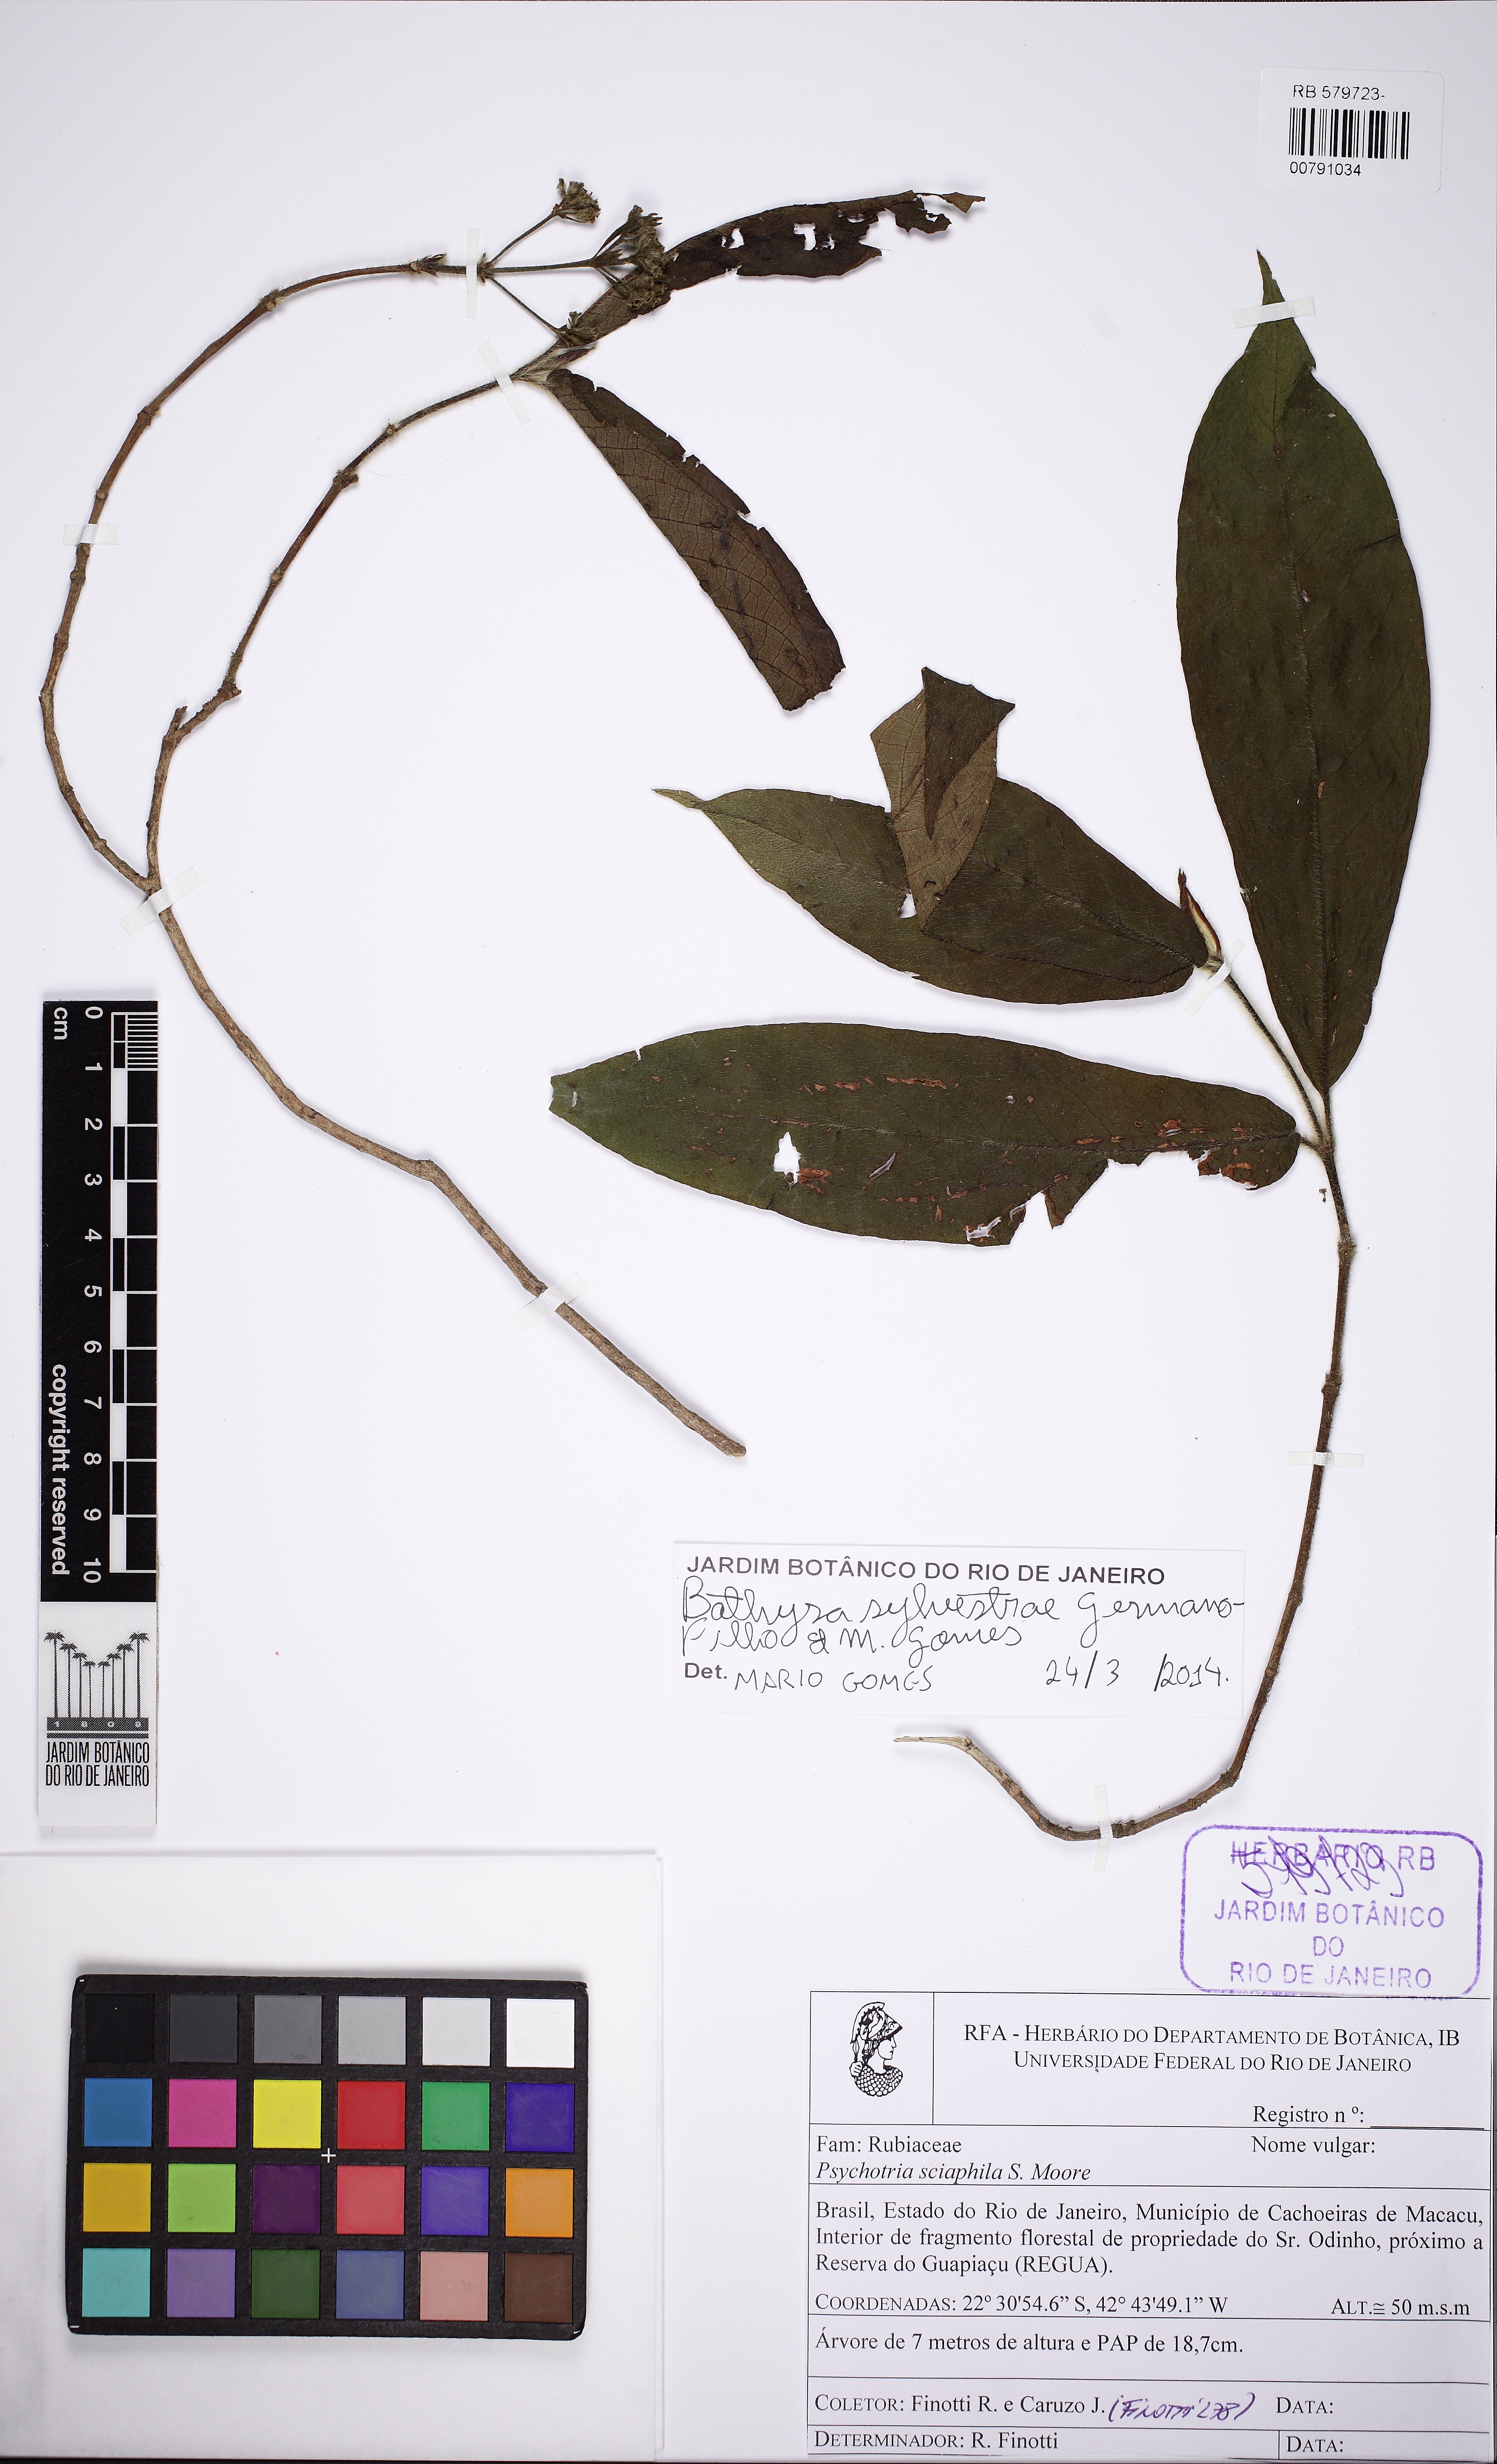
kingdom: Plantae
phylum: Tracheophyta
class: Magnoliopsida
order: Gentianales
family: Rubiaceae
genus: Bathysa
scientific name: Bathysa sylvestrae
